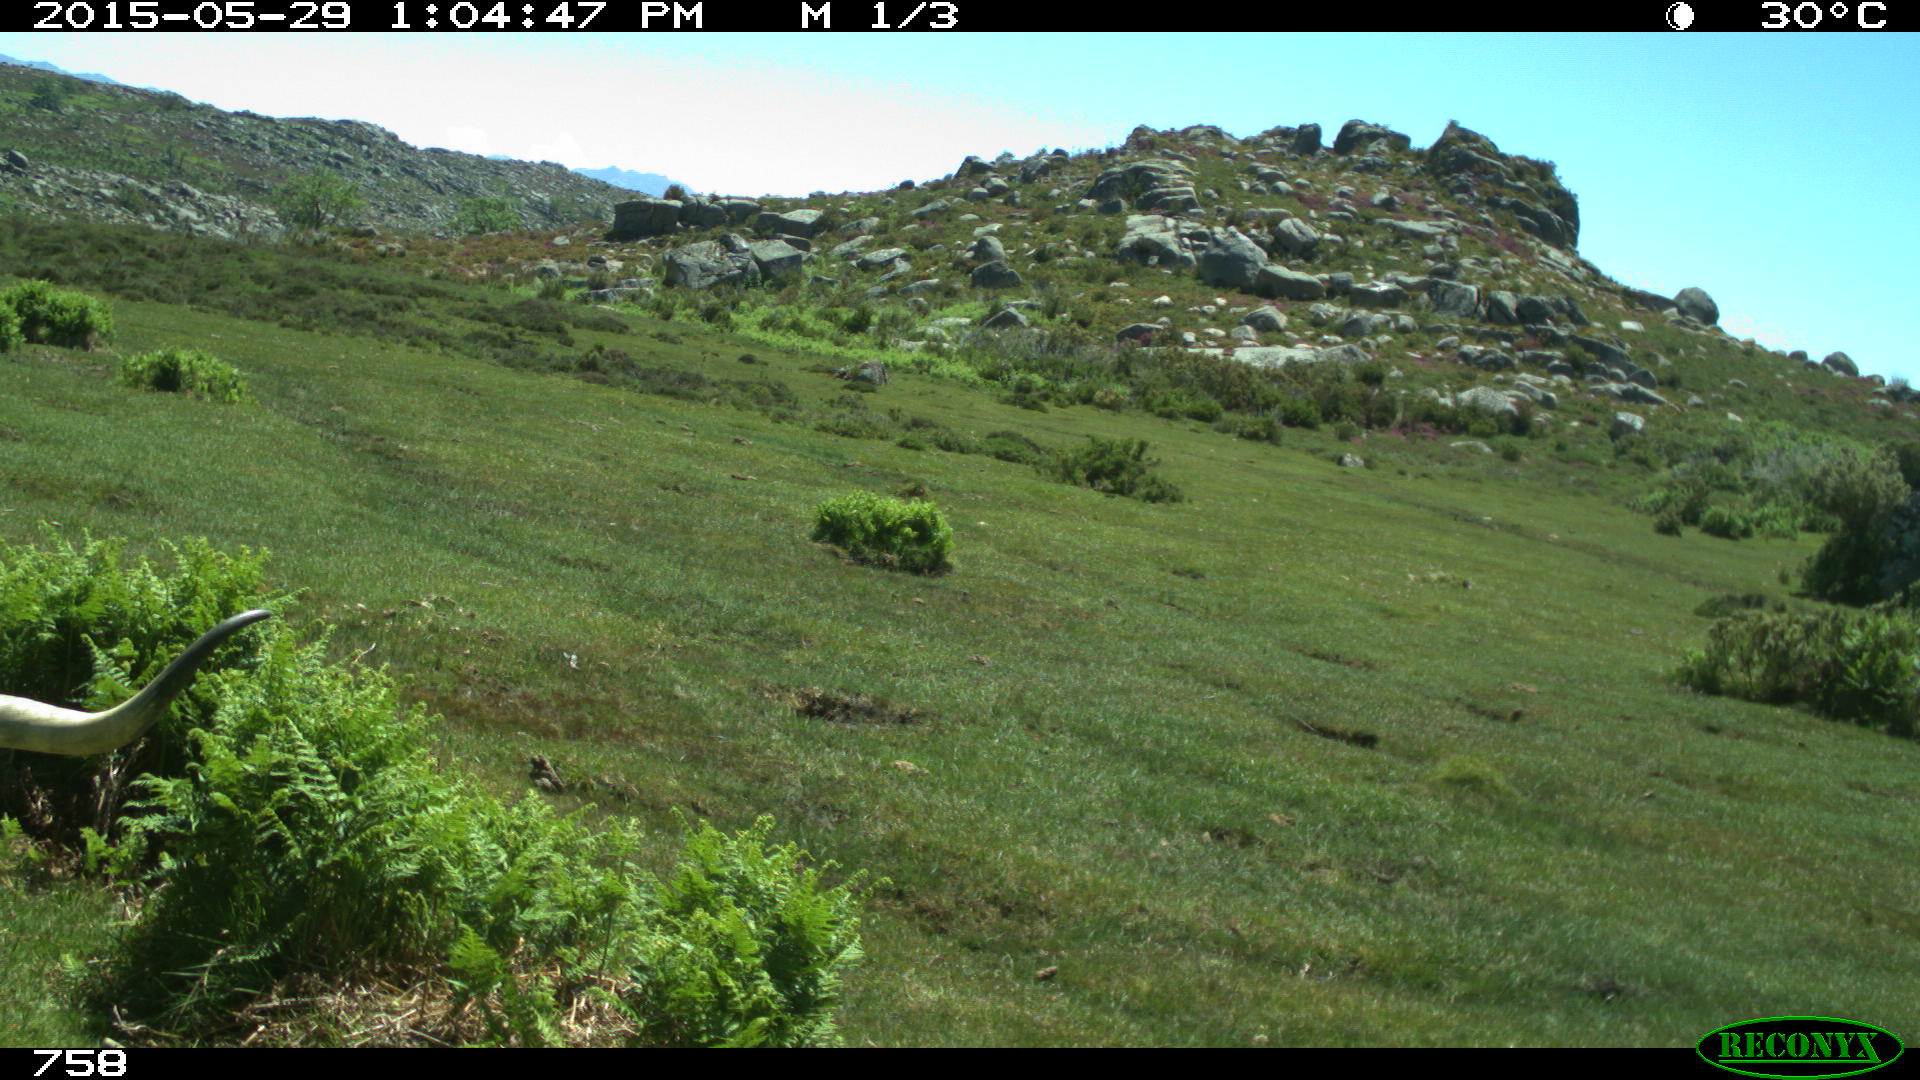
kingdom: Animalia
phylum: Chordata
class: Mammalia
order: Artiodactyla
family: Bovidae
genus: Bos
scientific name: Bos taurus
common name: Domesticated cattle
